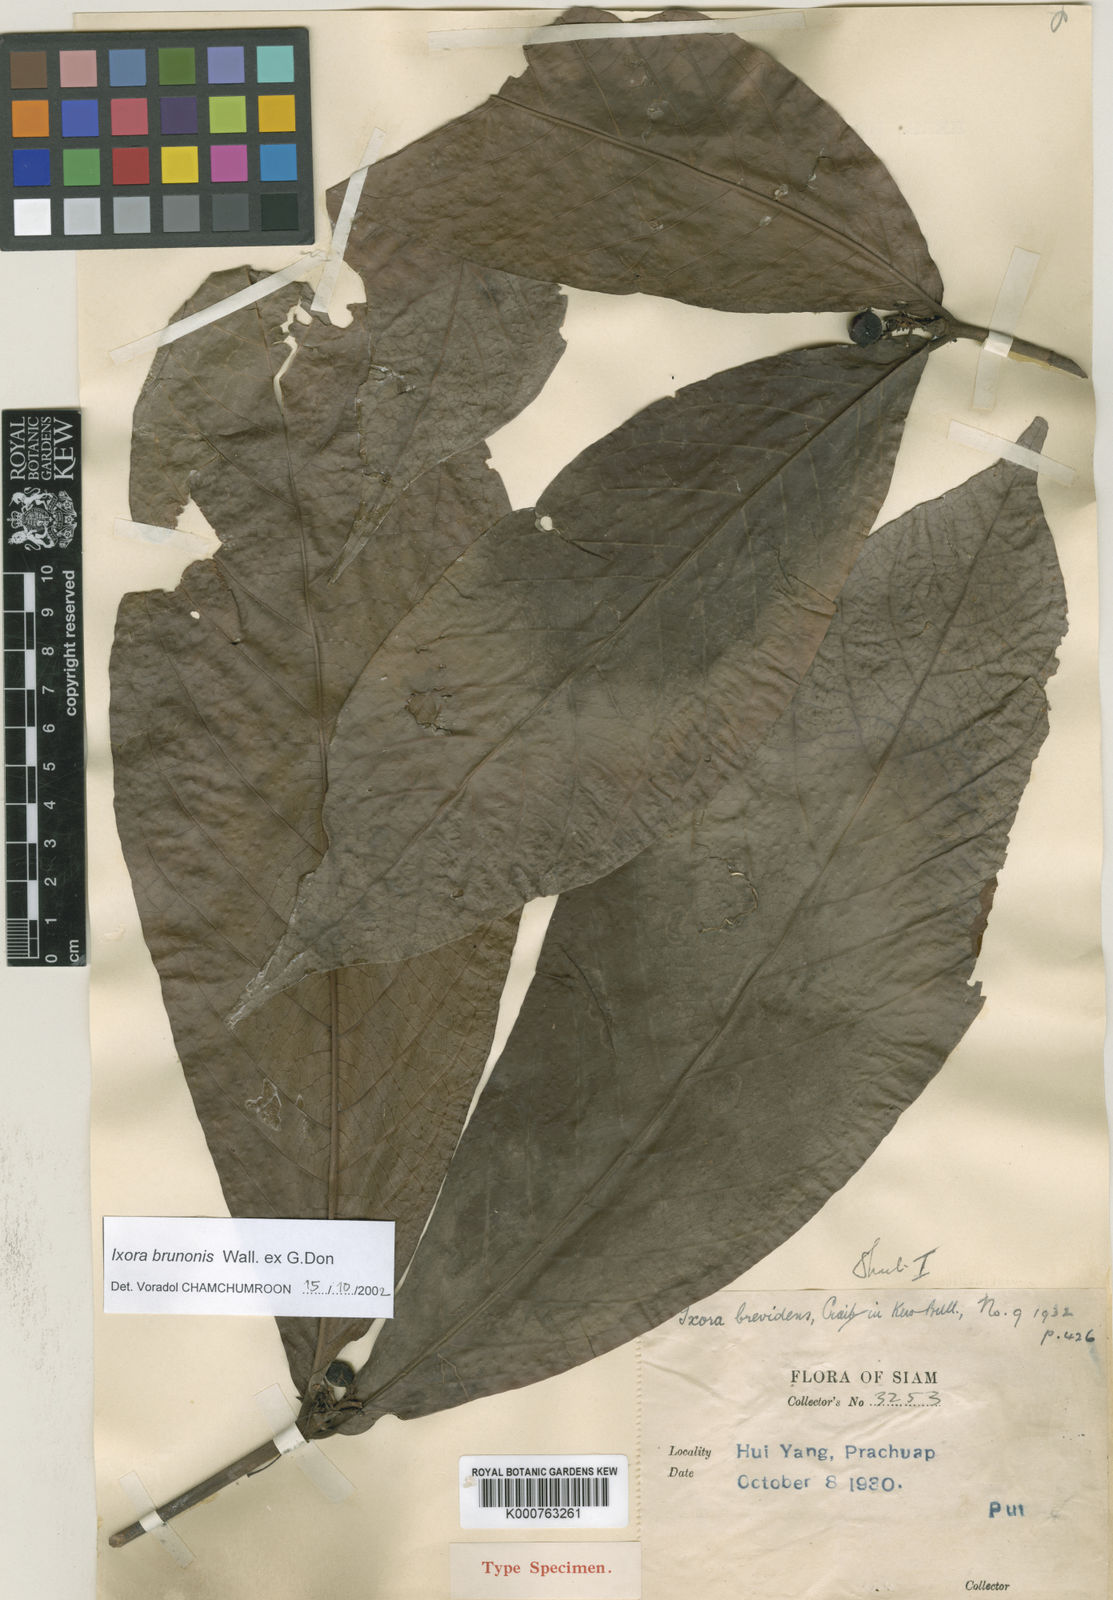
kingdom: Plantae
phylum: Tracheophyta
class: Magnoliopsida
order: Gentianales
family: Rubiaceae
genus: Ixora
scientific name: Ixora brunonis
